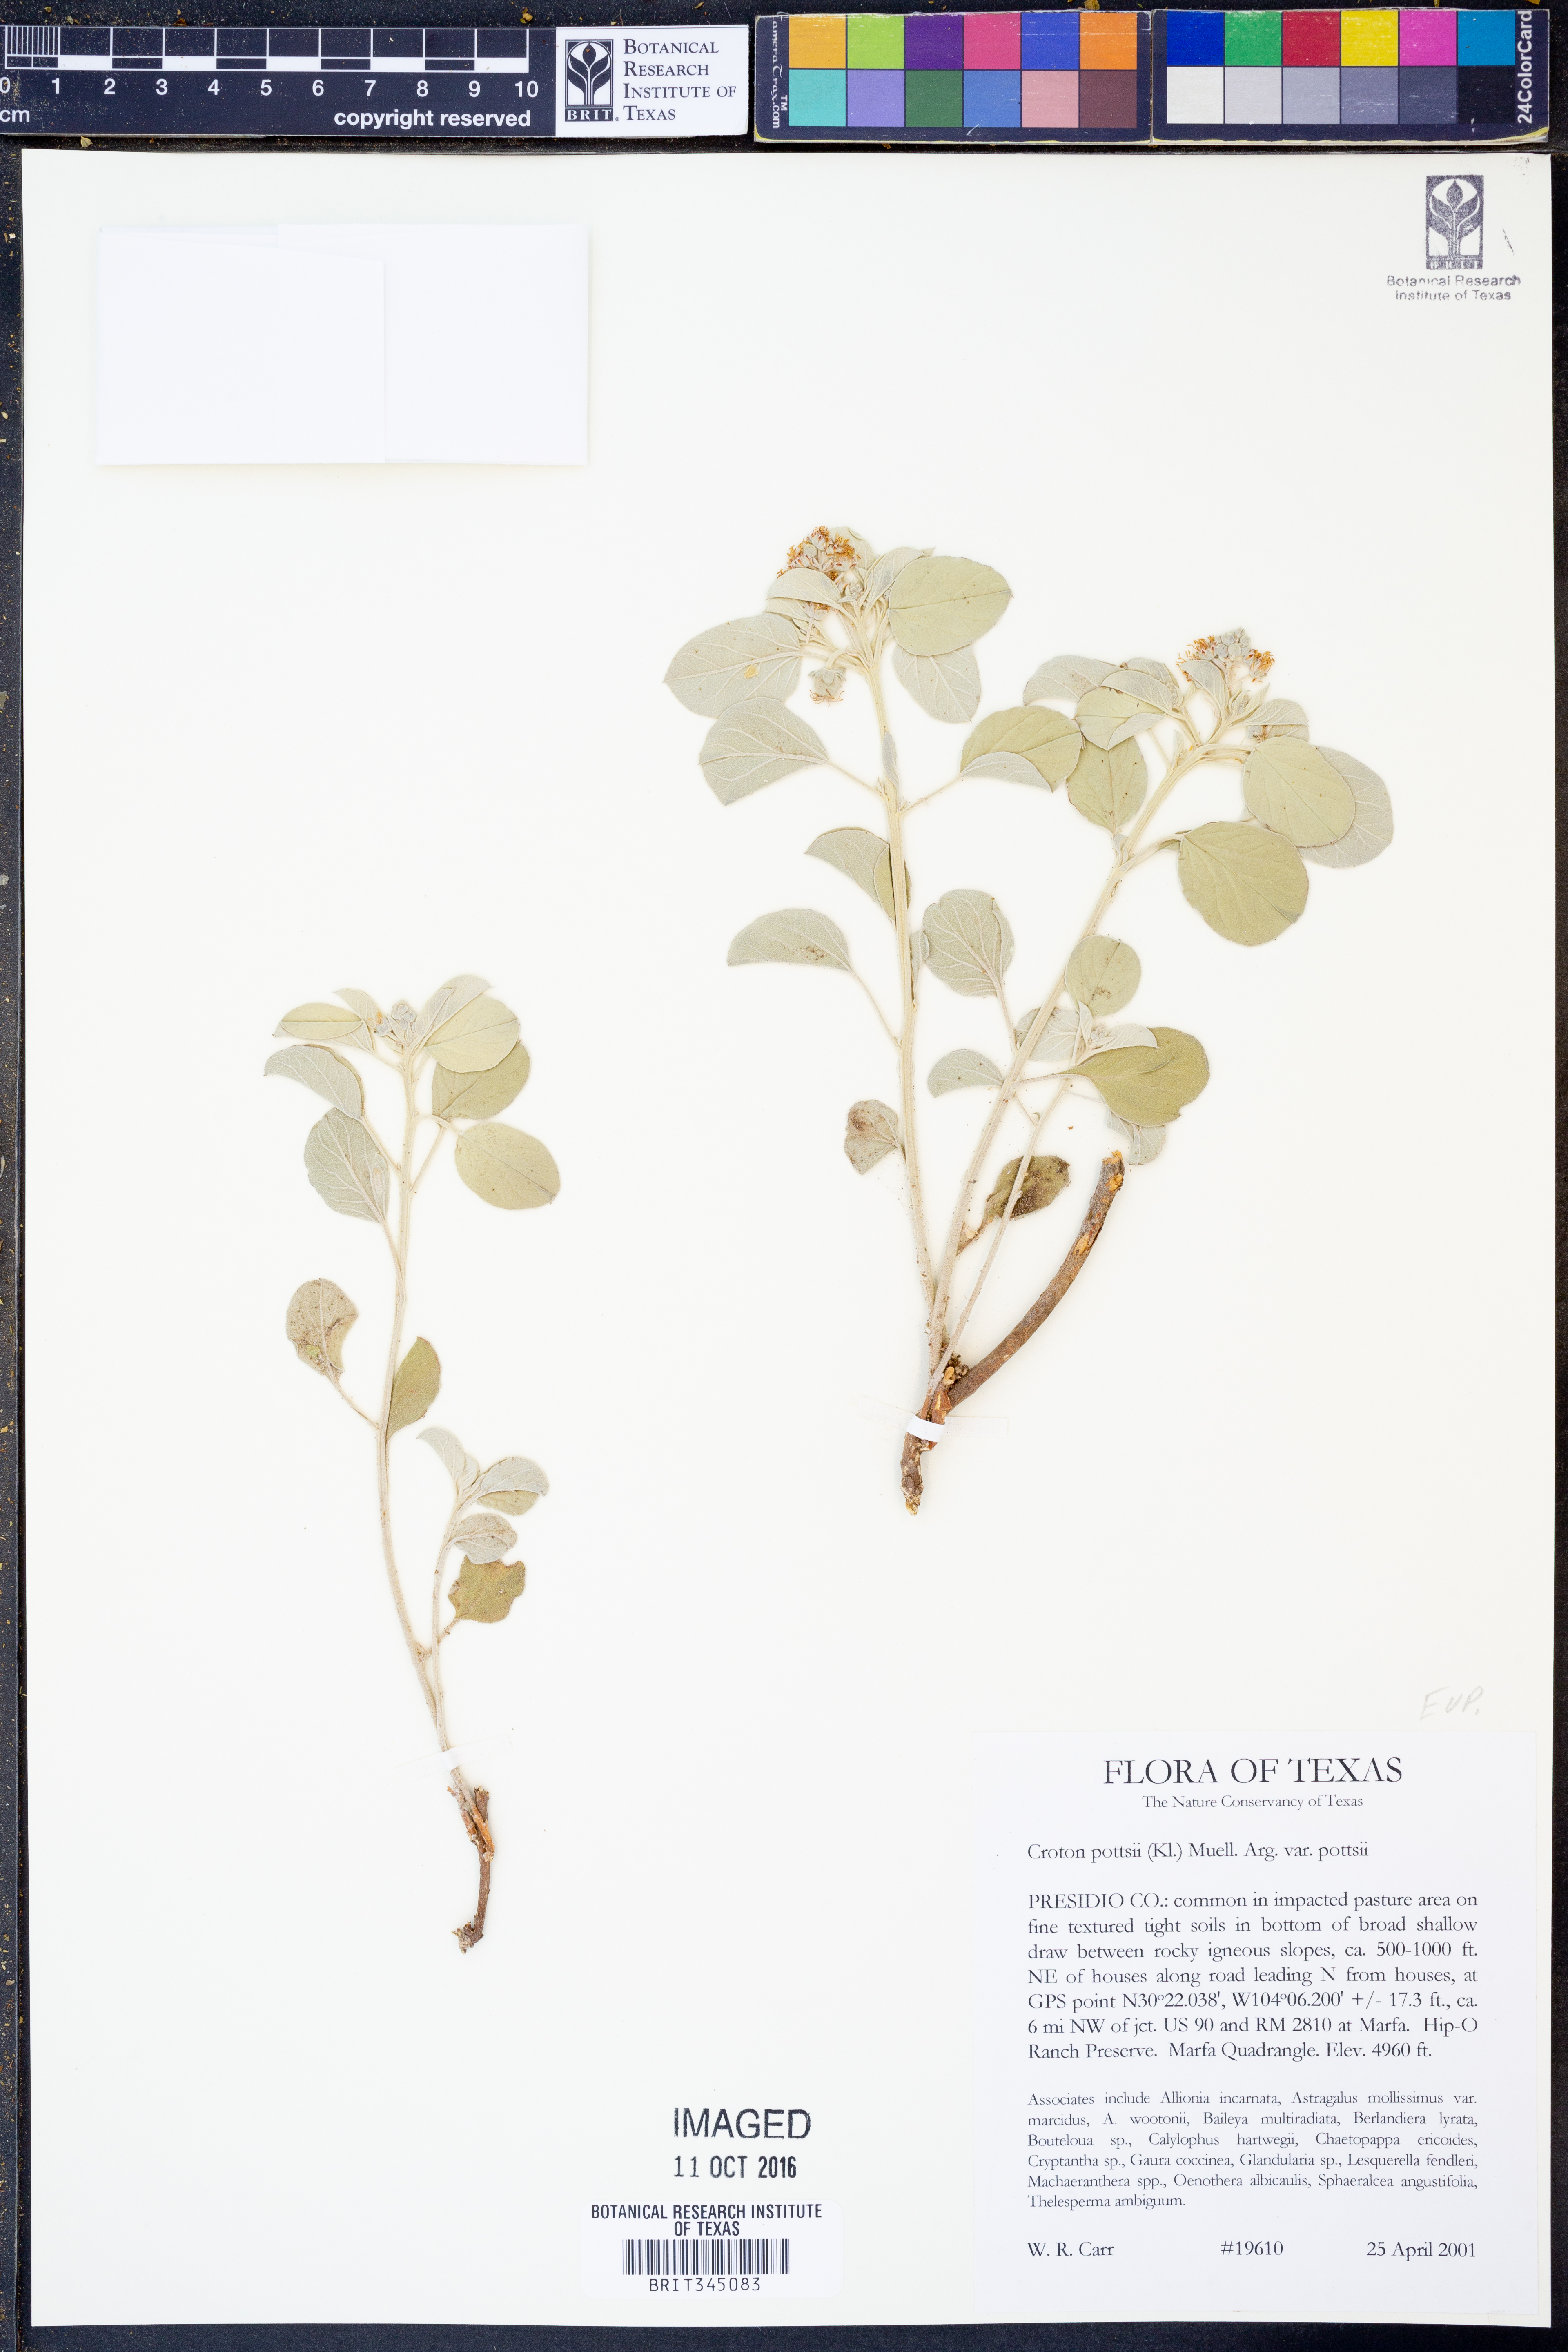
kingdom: Plantae
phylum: Tracheophyta
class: Magnoliopsida
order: Malpighiales
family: Euphorbiaceae
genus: Croton
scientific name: Croton pottsii
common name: Leatherweed
